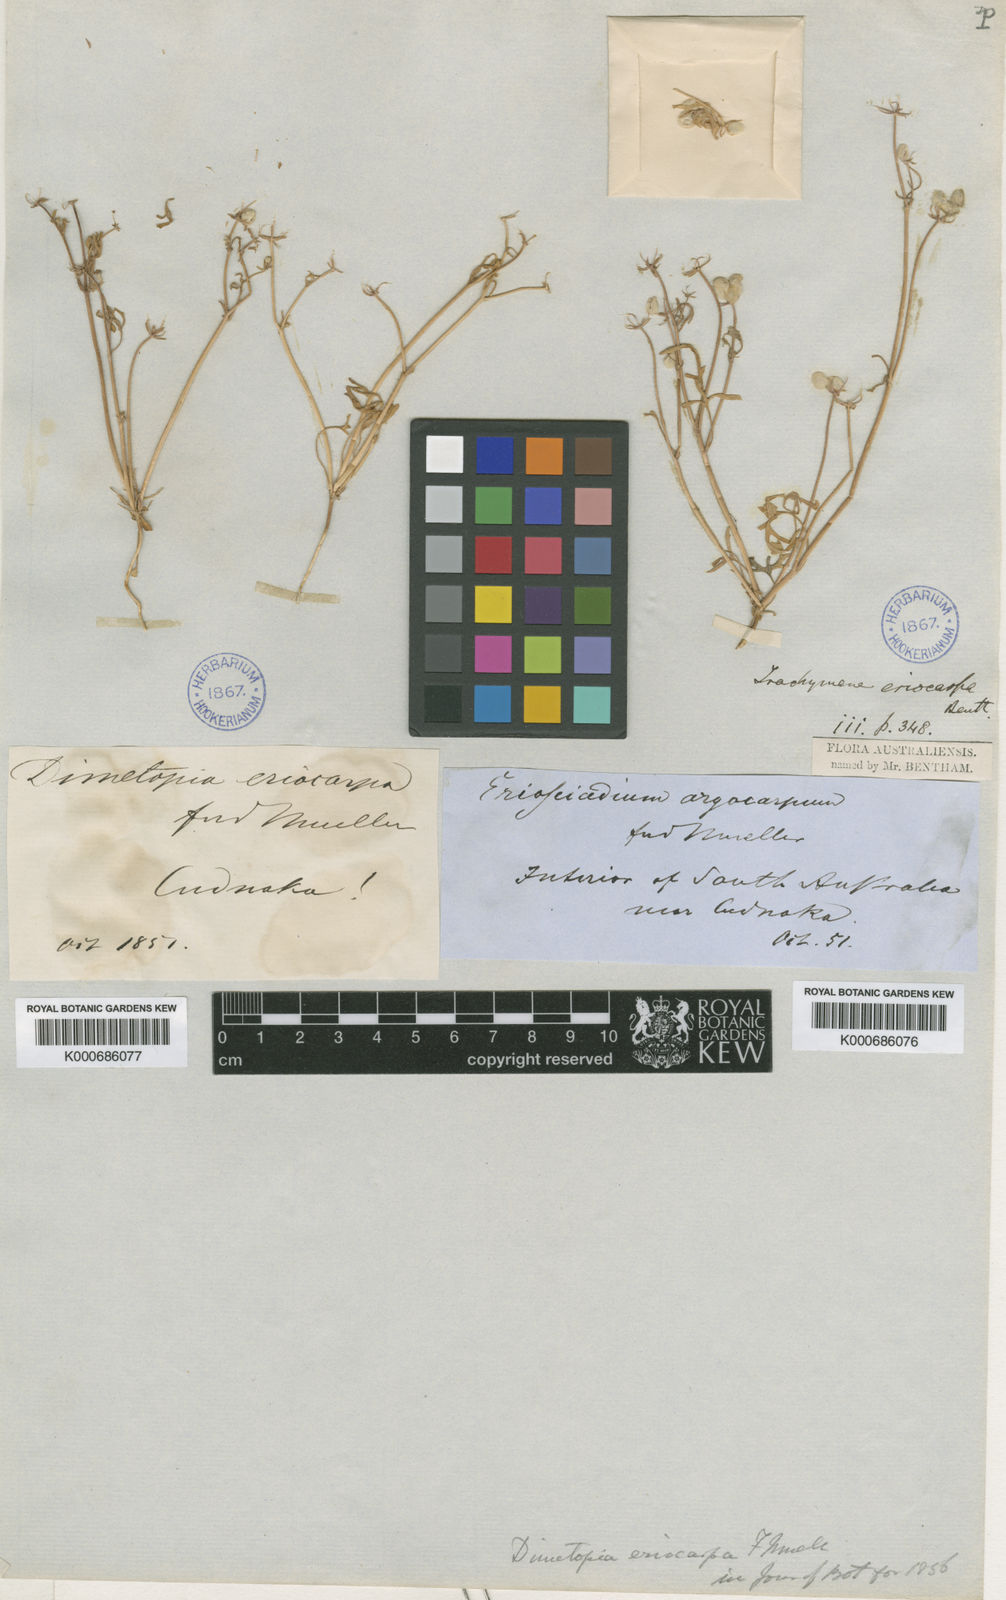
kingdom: Plantae
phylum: Tracheophyta
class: Magnoliopsida
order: Apiales
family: Araliaceae
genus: Trachymene
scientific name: Trachymene ornata
